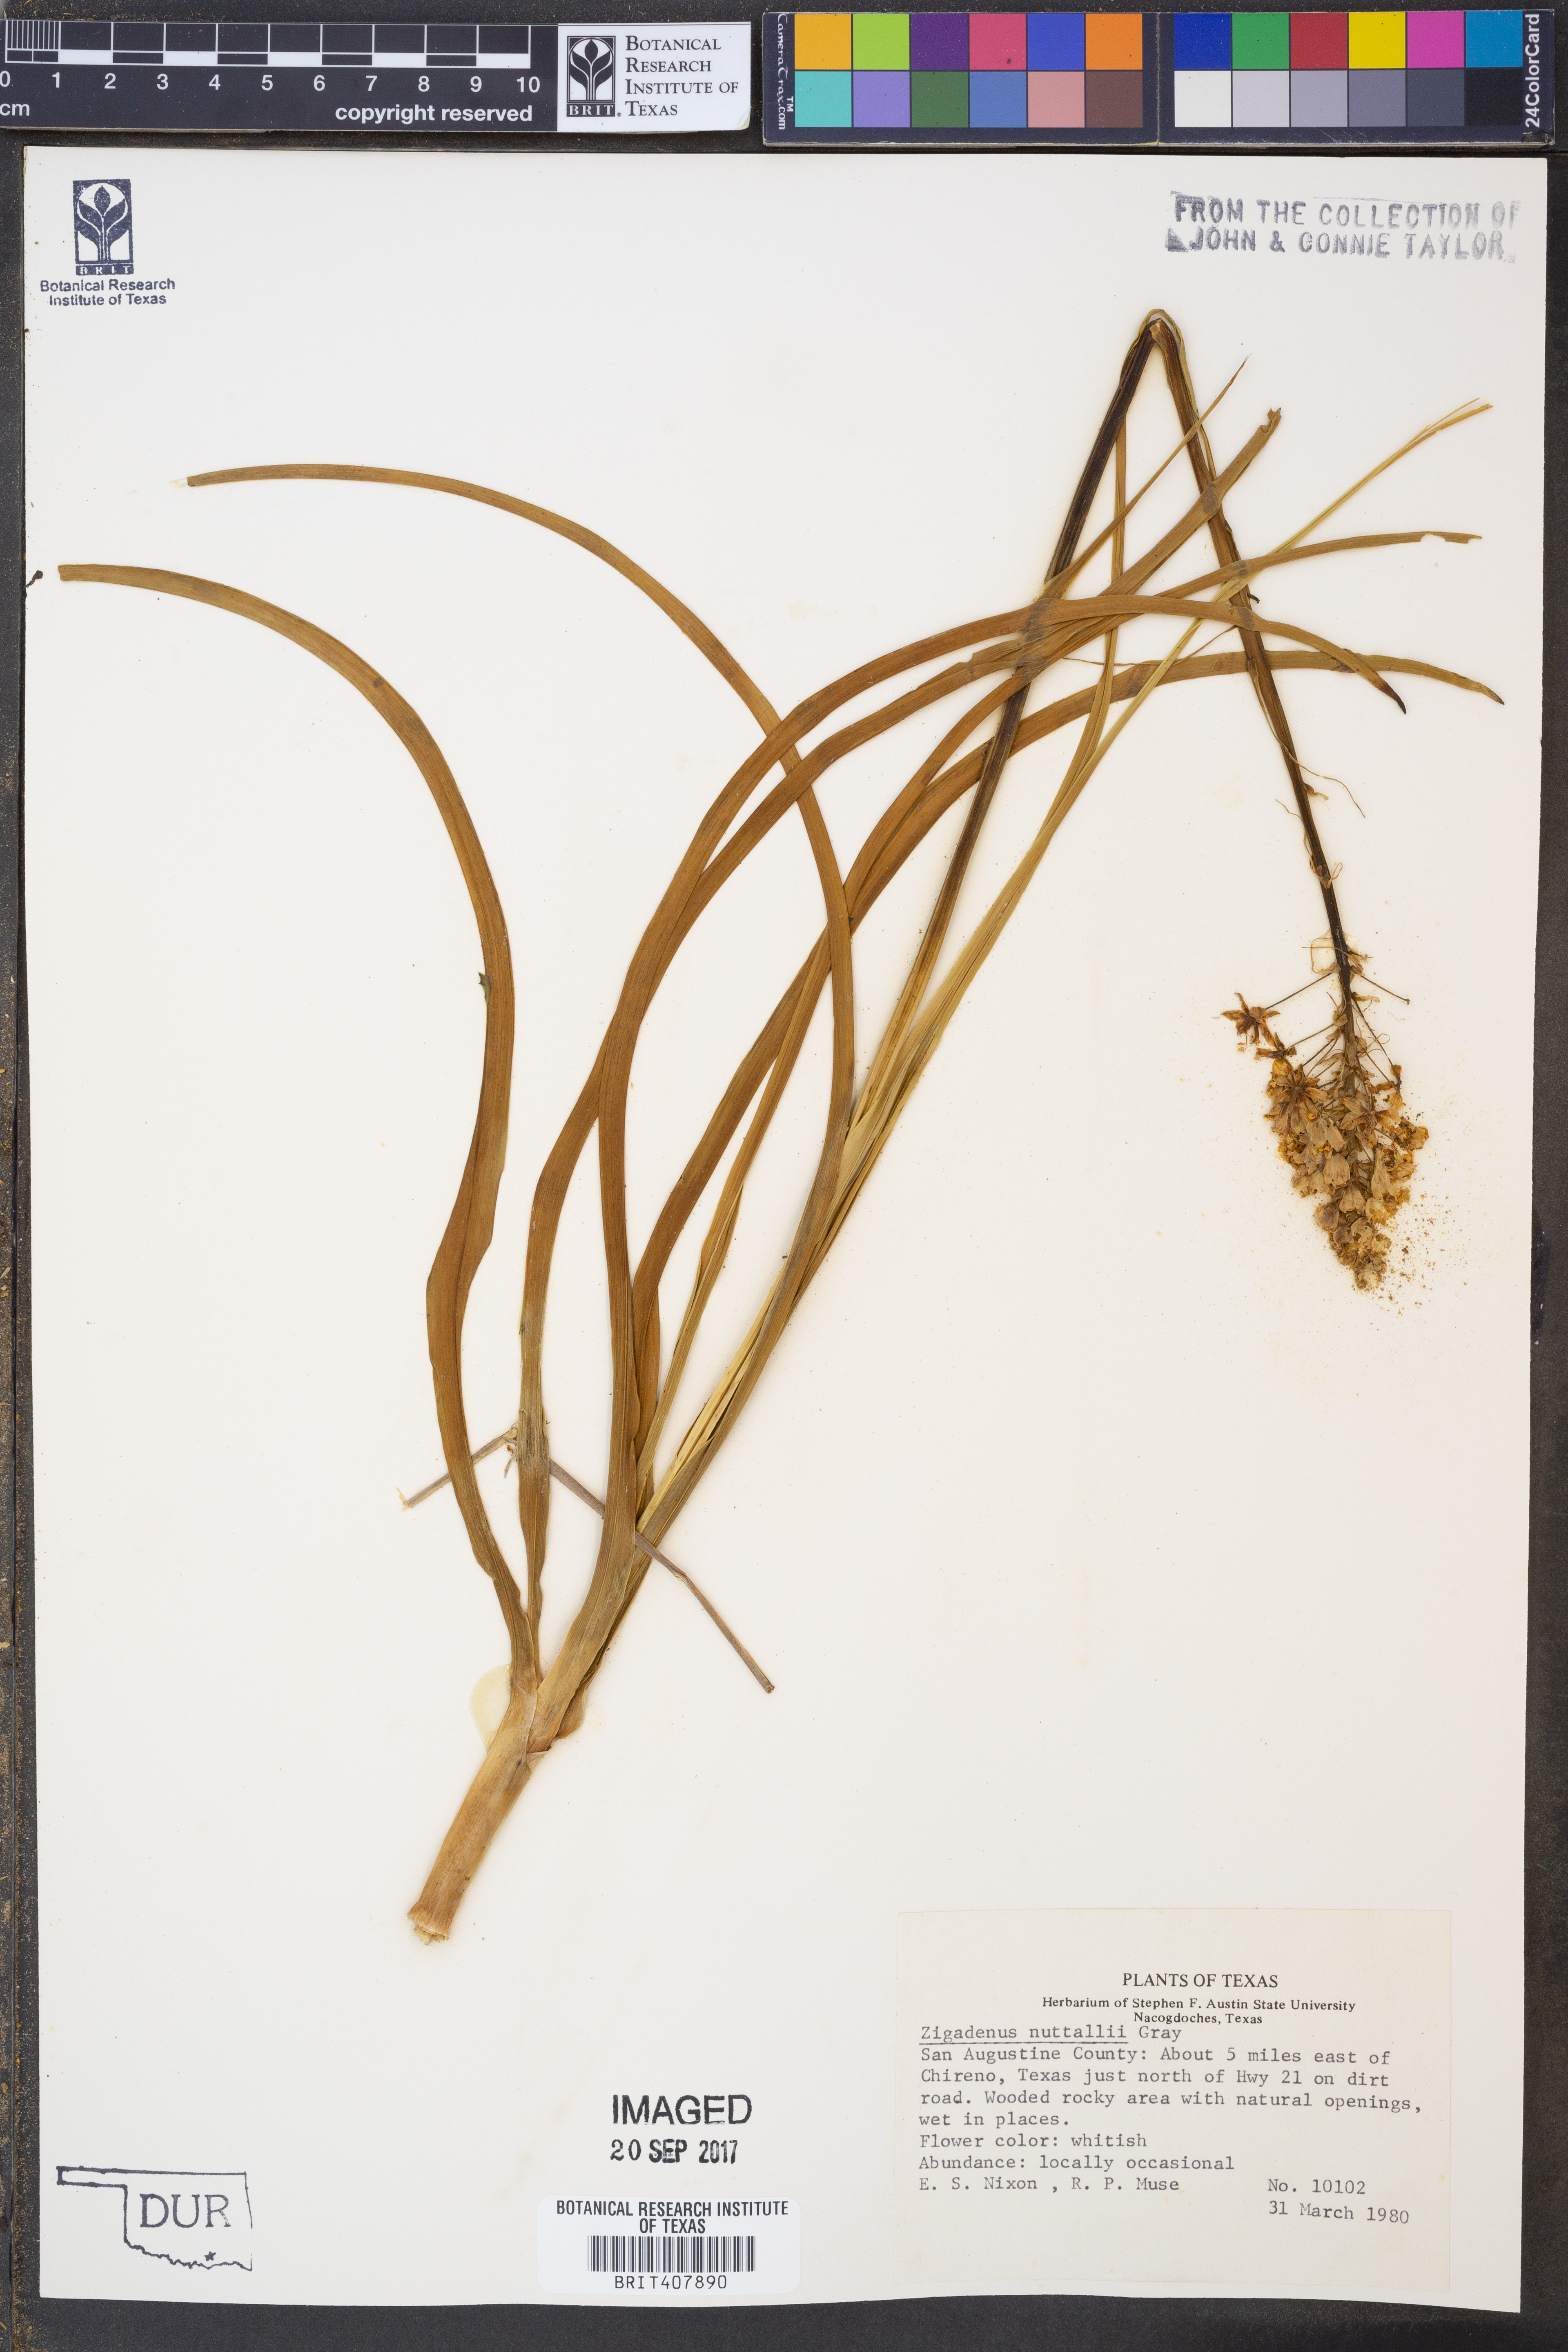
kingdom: Plantae
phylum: Tracheophyta
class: Liliopsida
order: Liliales
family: Melanthiaceae
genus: Toxicoscordion
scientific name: Toxicoscordion nuttallii
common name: Poison sego
